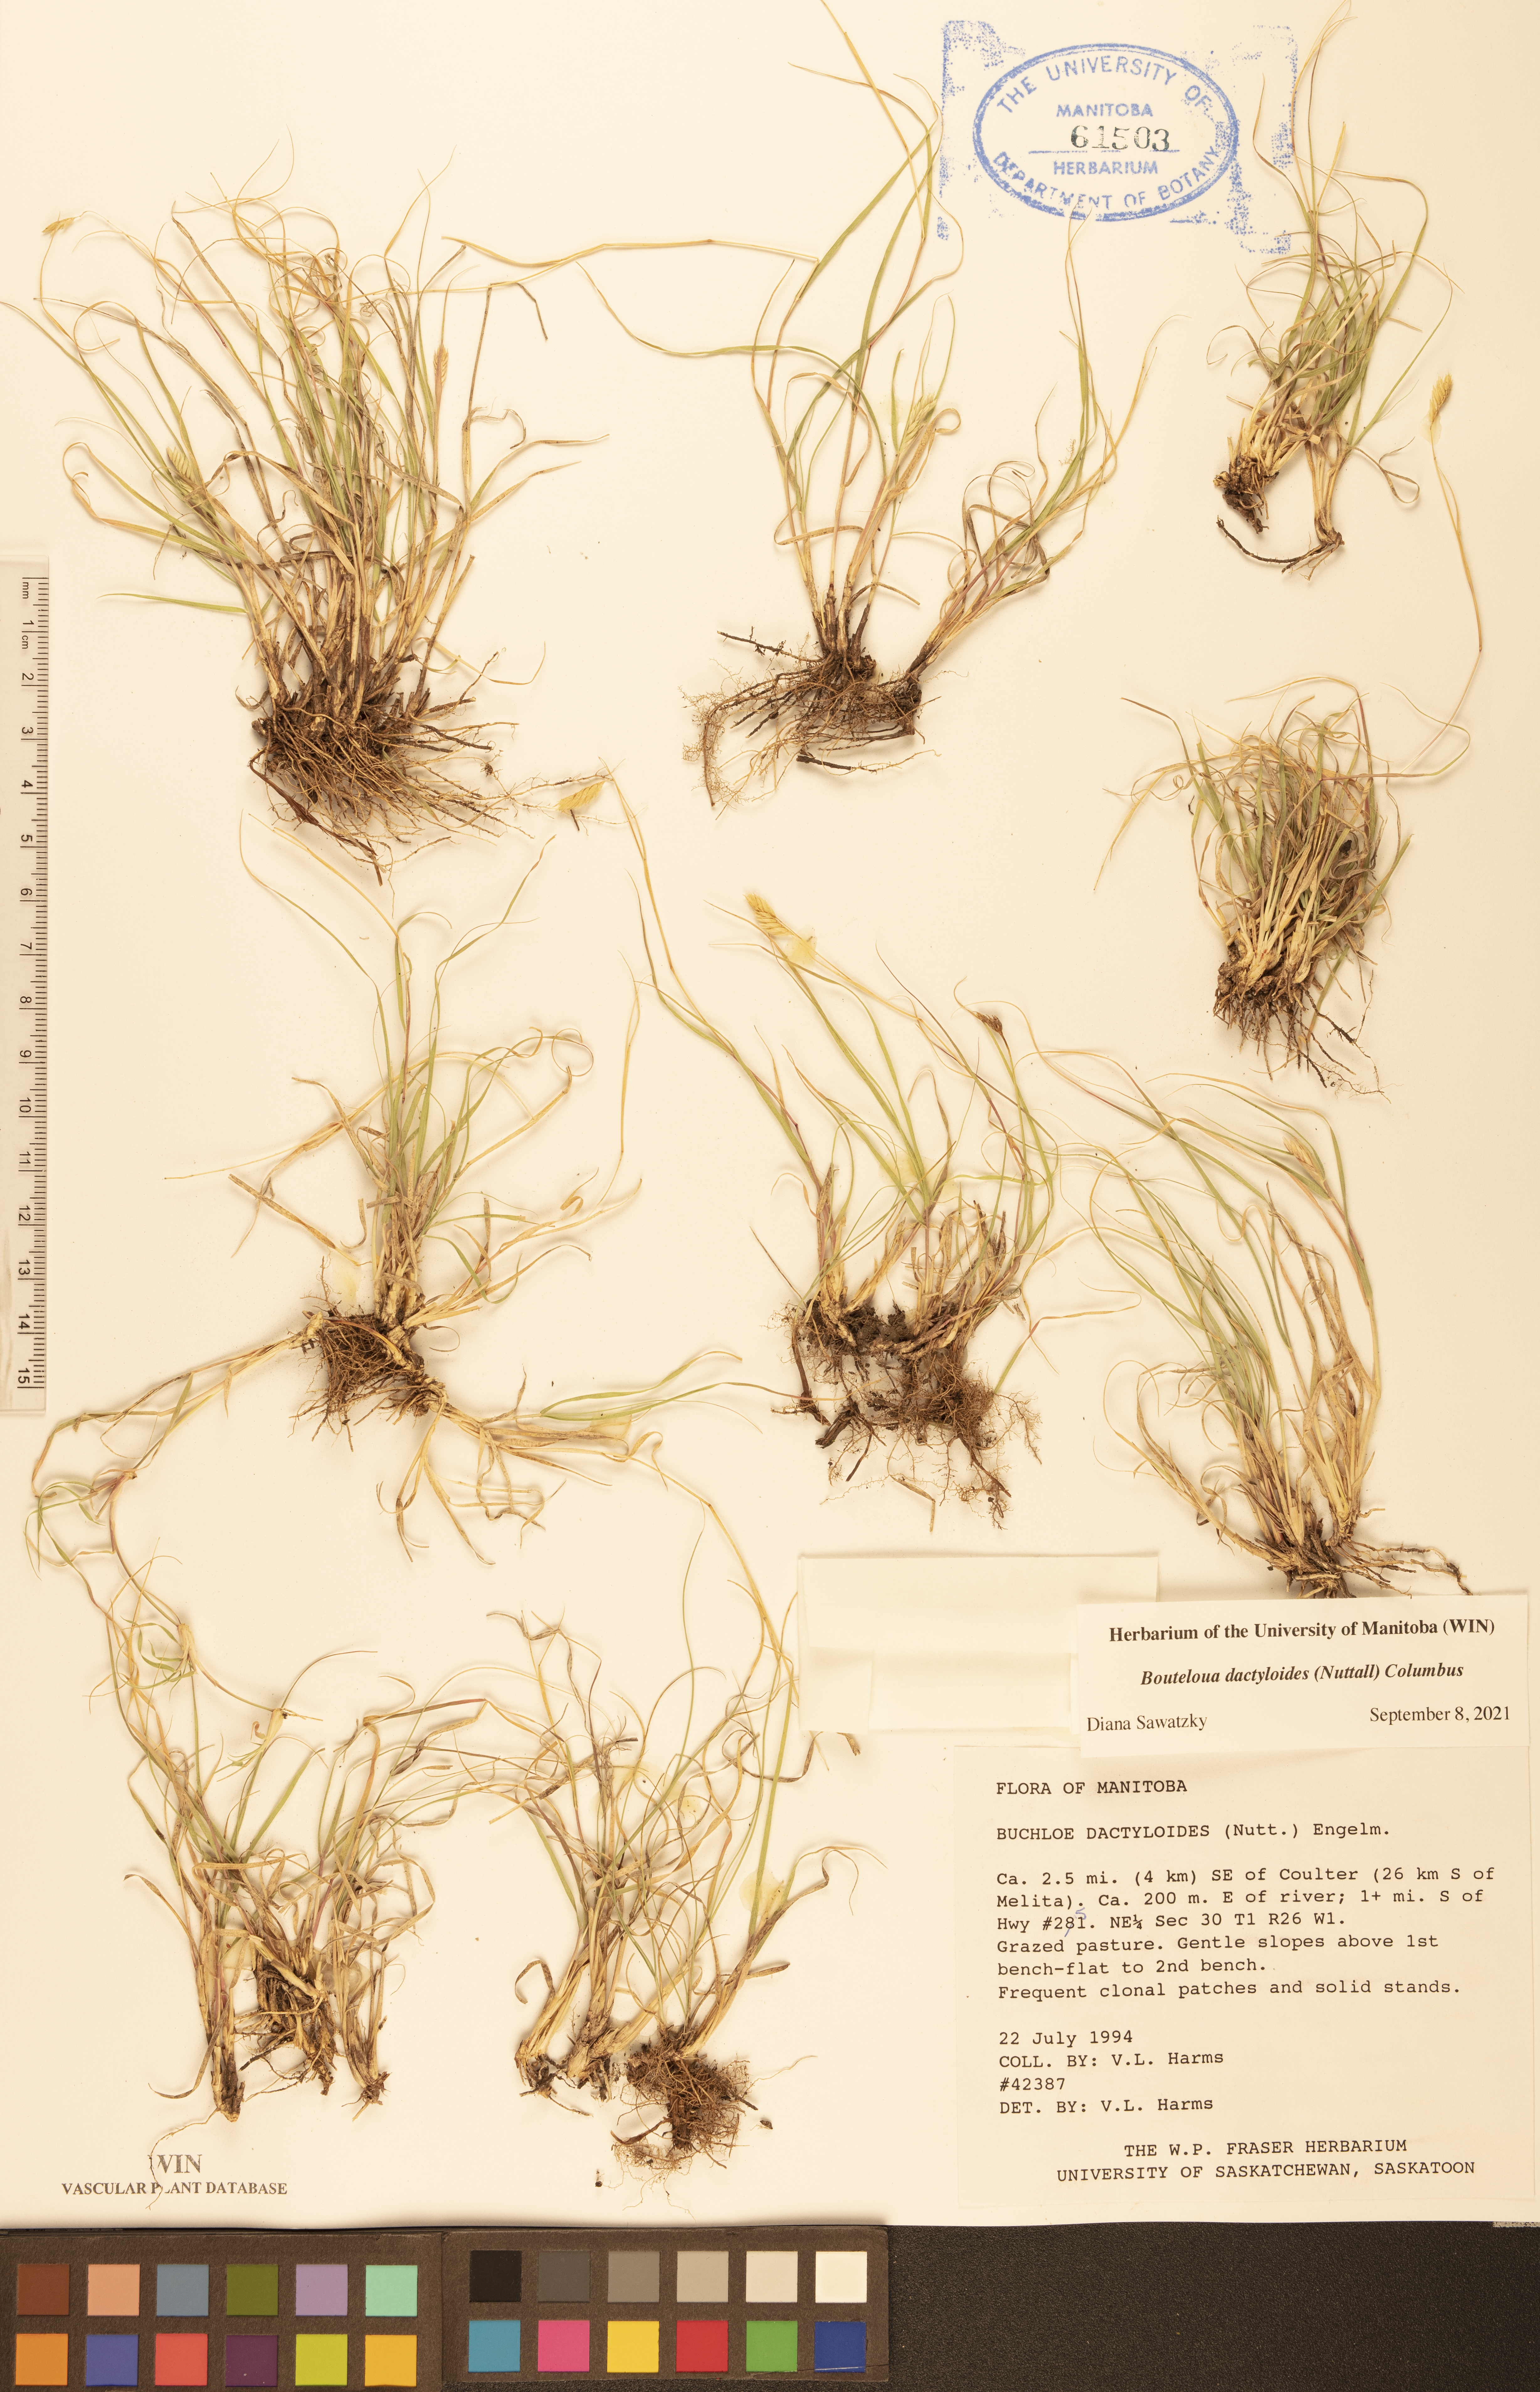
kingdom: Plantae
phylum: Tracheophyta
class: Liliopsida
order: Poales
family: Poaceae
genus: Bouteloua
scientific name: Bouteloua dactyloides
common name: Buffalo grass
